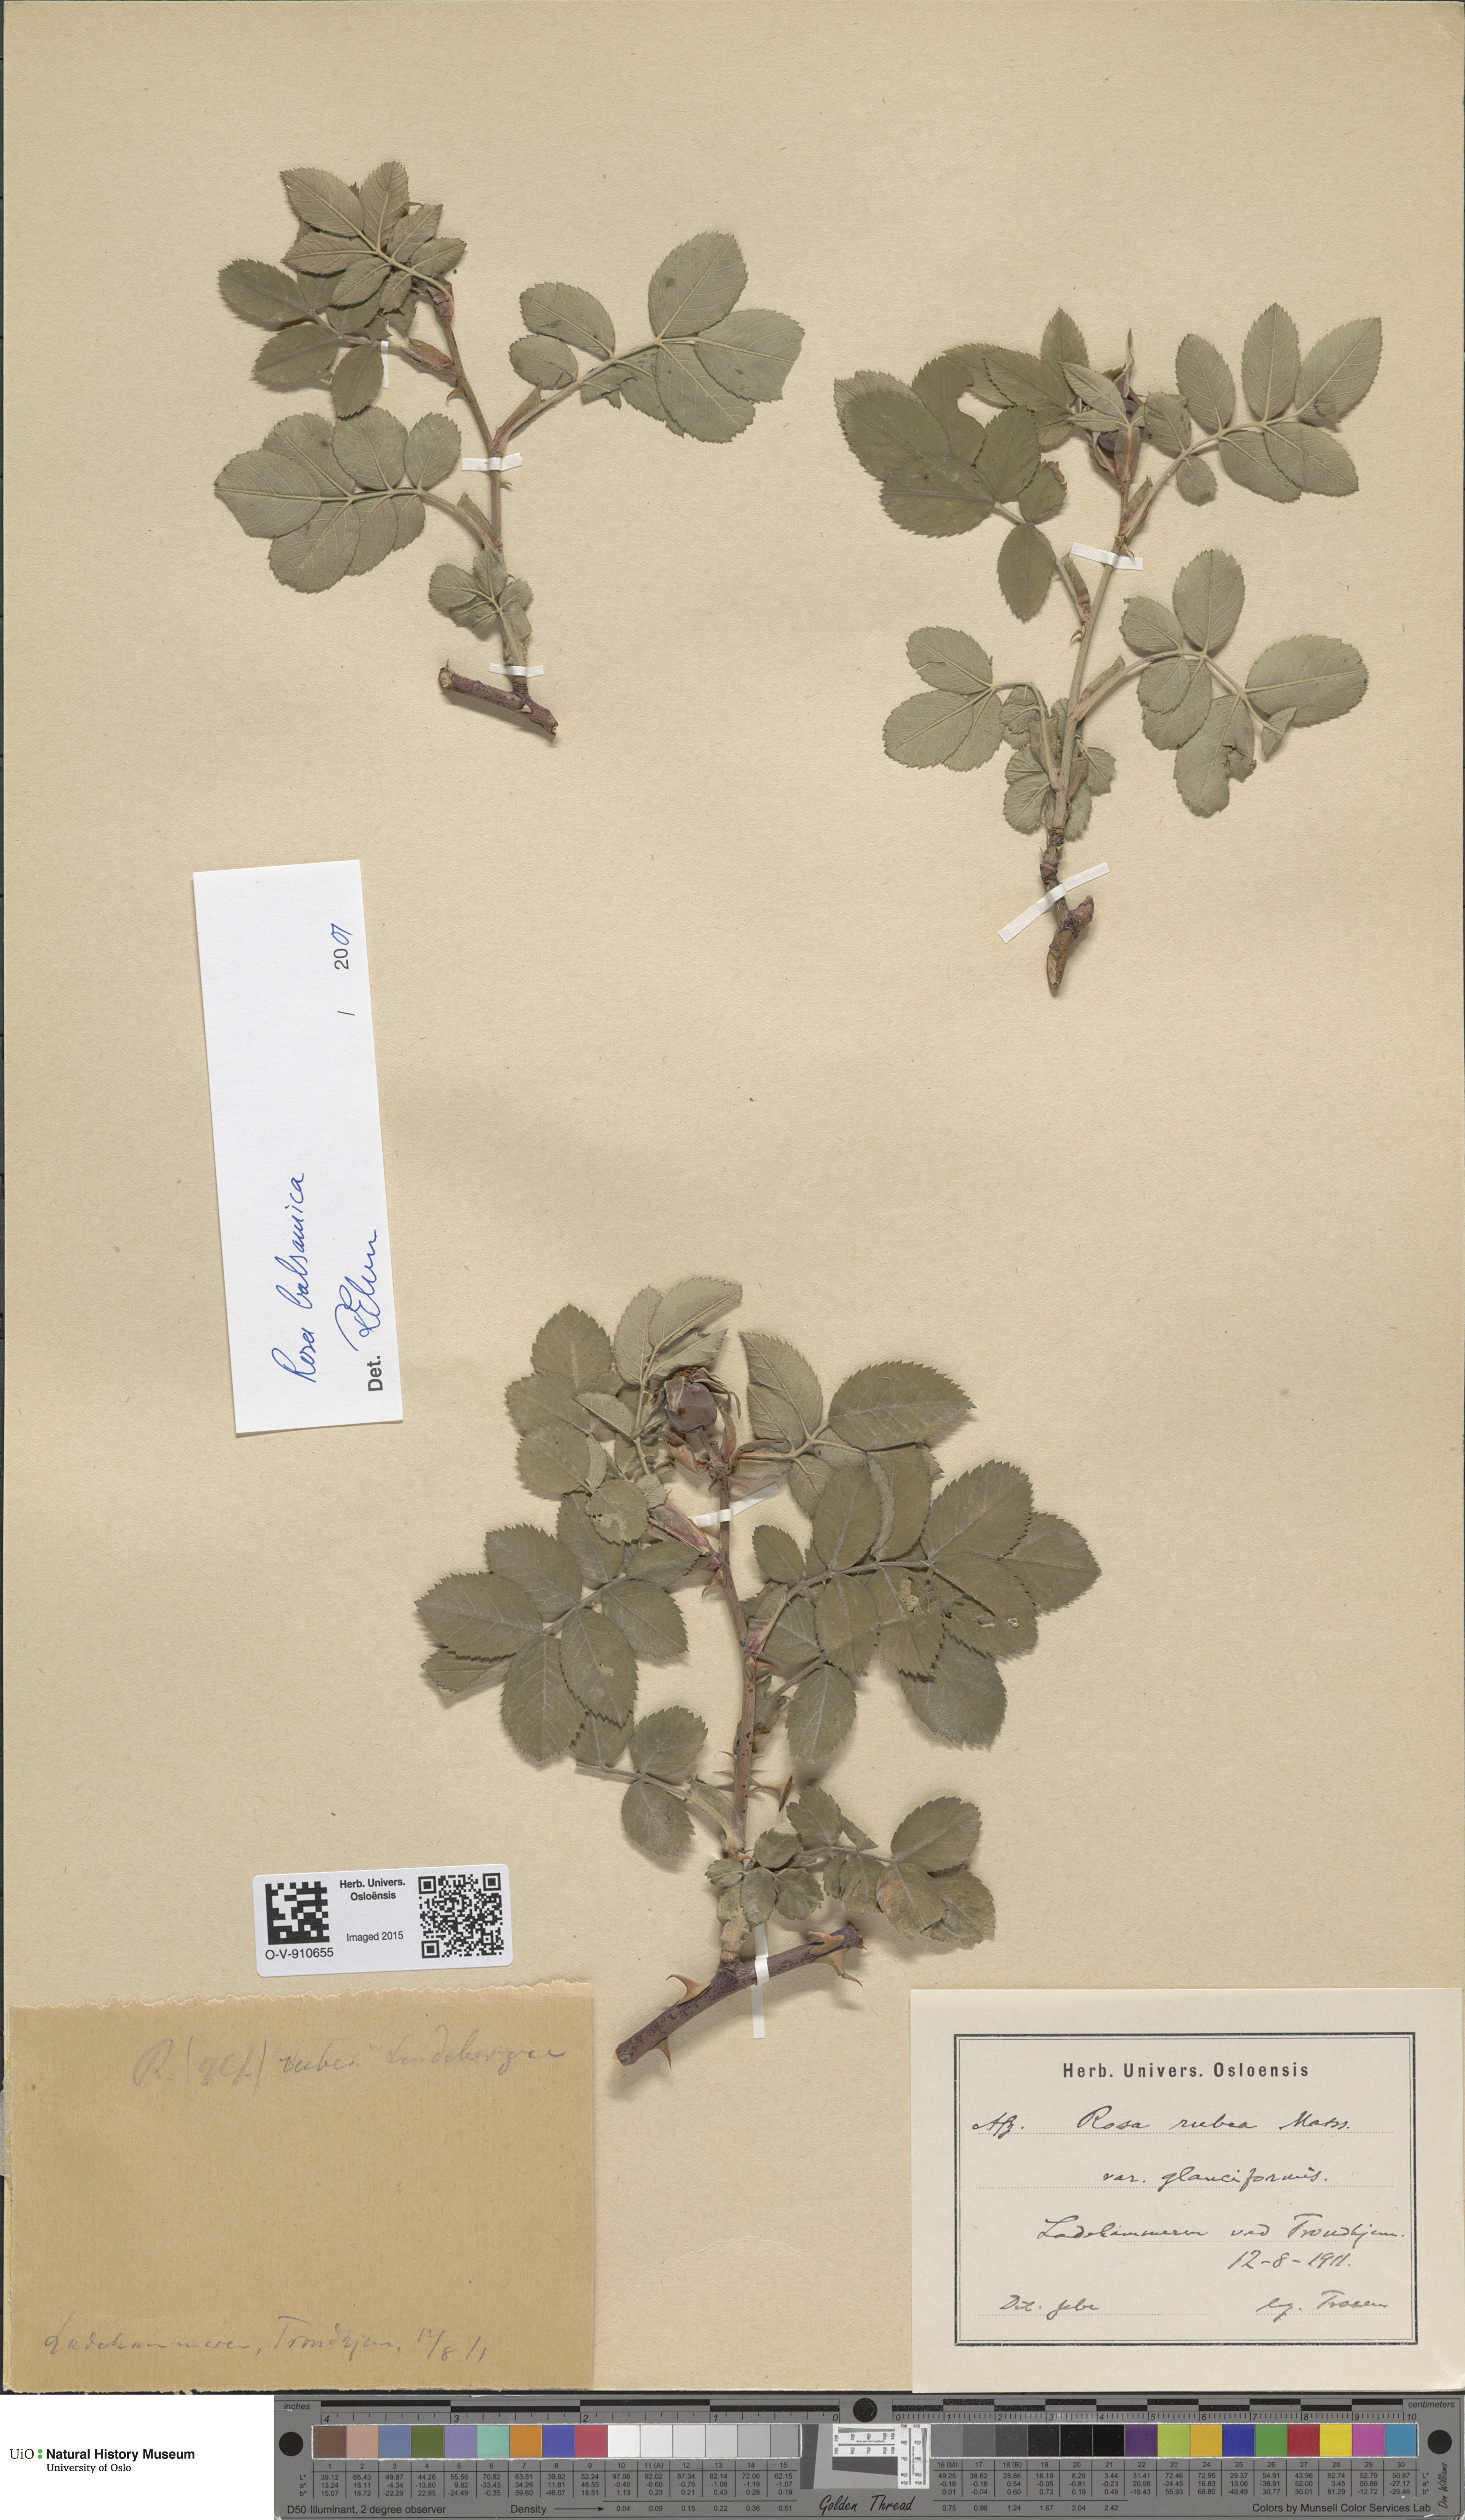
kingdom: Plantae
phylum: Tracheophyta
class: Magnoliopsida
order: Rosales
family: Rosaceae
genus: Rosa
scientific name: Rosa balsamica
